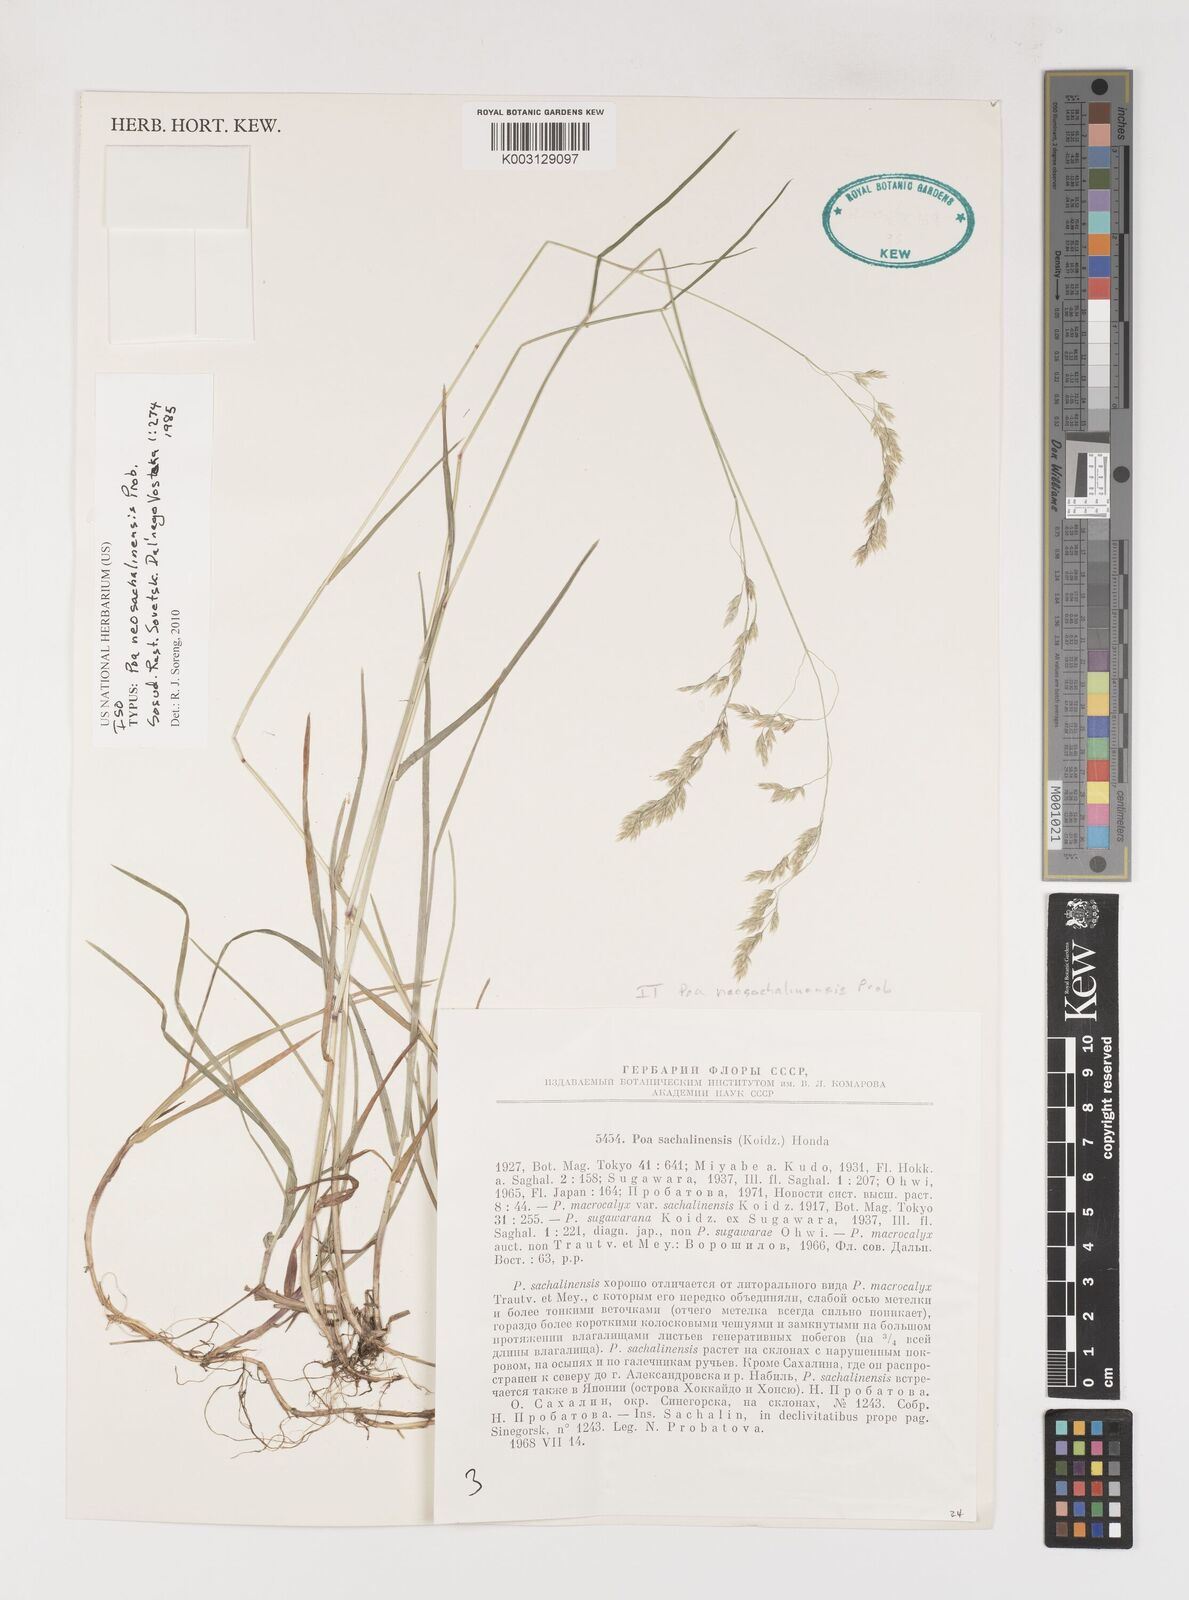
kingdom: Plantae
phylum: Tracheophyta
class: Liliopsida
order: Poales
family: Poaceae
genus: Poa
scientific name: Poa sachalinensis
